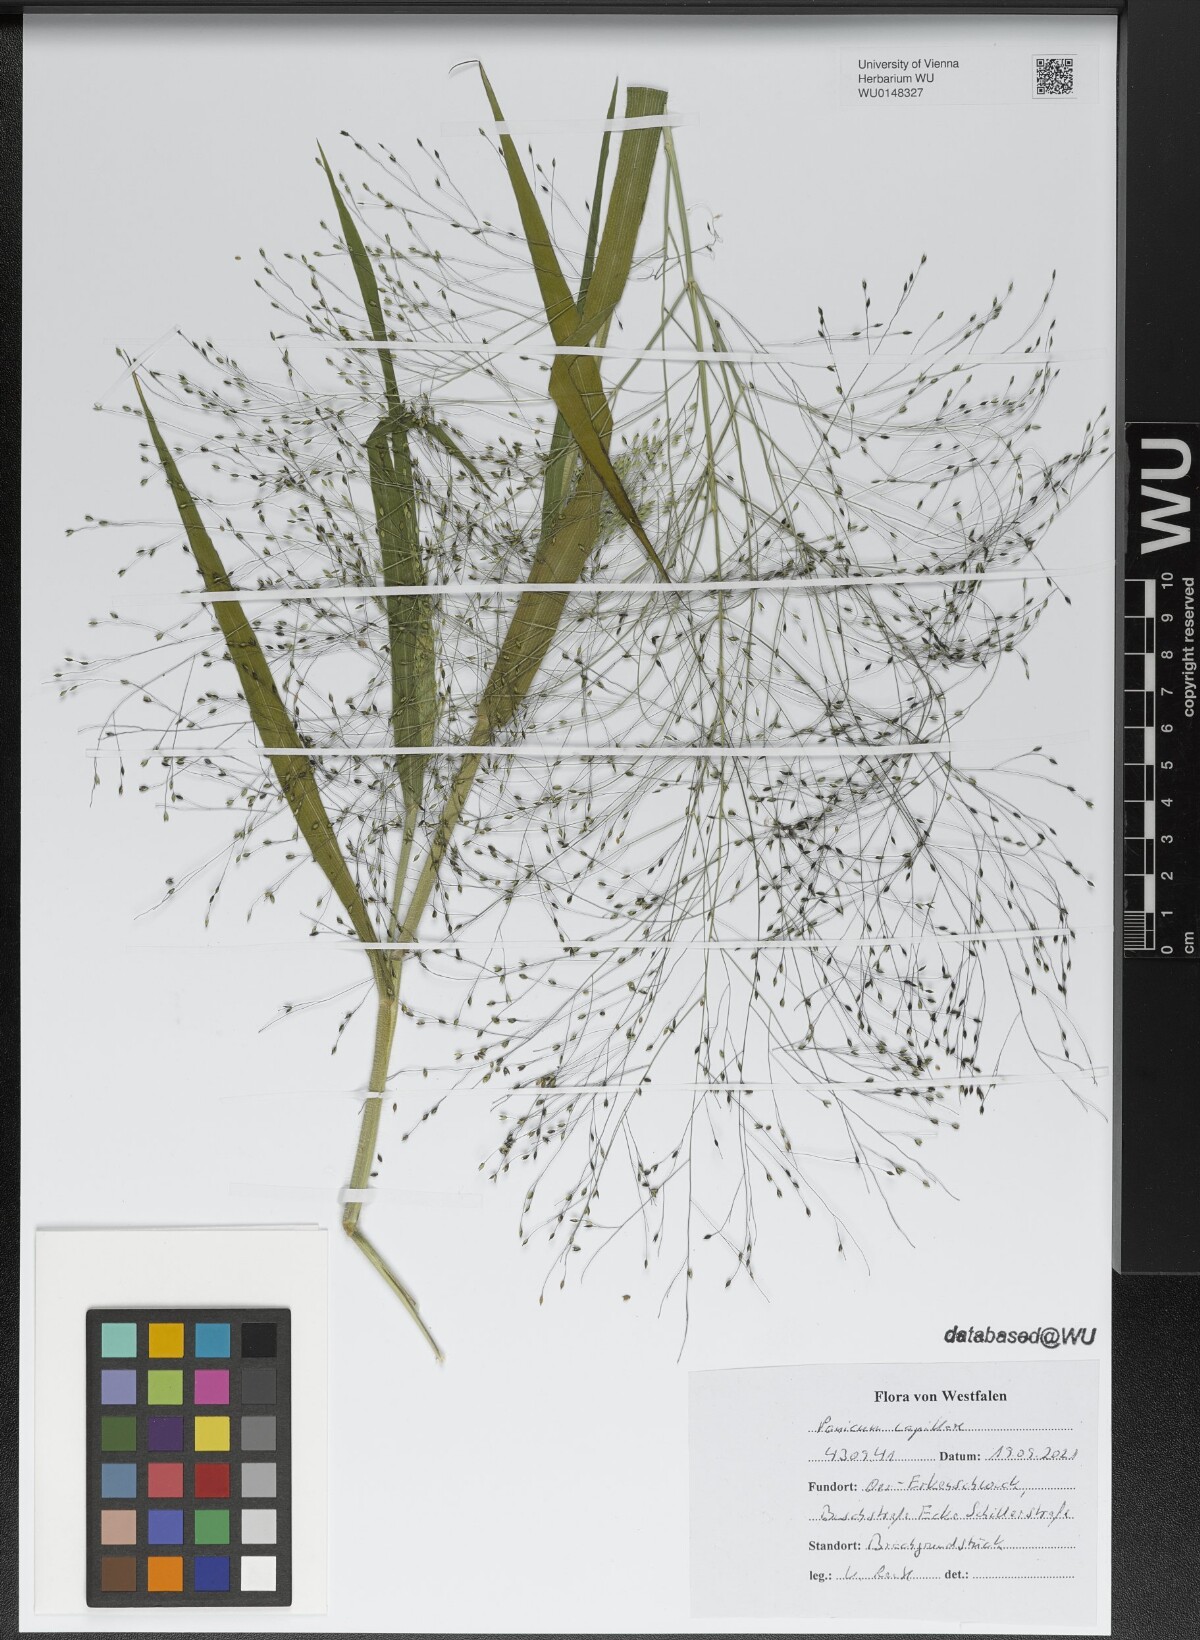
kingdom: Plantae
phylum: Tracheophyta
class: Liliopsida
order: Poales
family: Poaceae
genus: Panicum
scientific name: Panicum capillare
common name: Witch-grass
